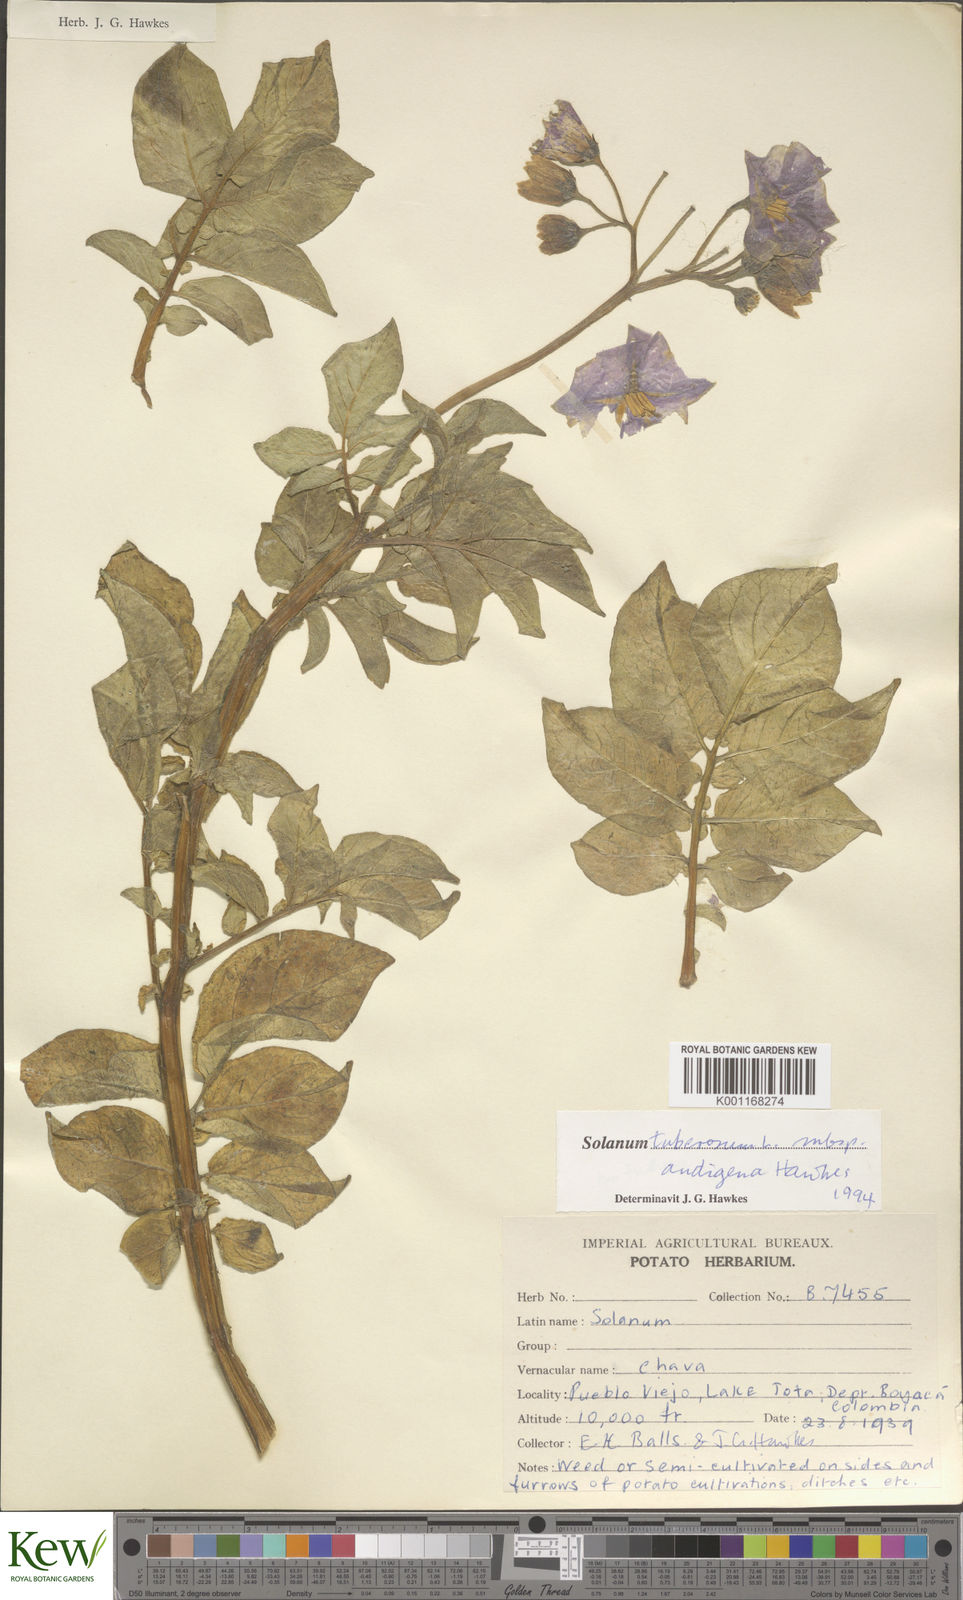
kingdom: Plantae
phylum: Tracheophyta
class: Magnoliopsida
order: Solanales
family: Solanaceae
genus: Solanum
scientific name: Solanum tuberosum
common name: Potato
